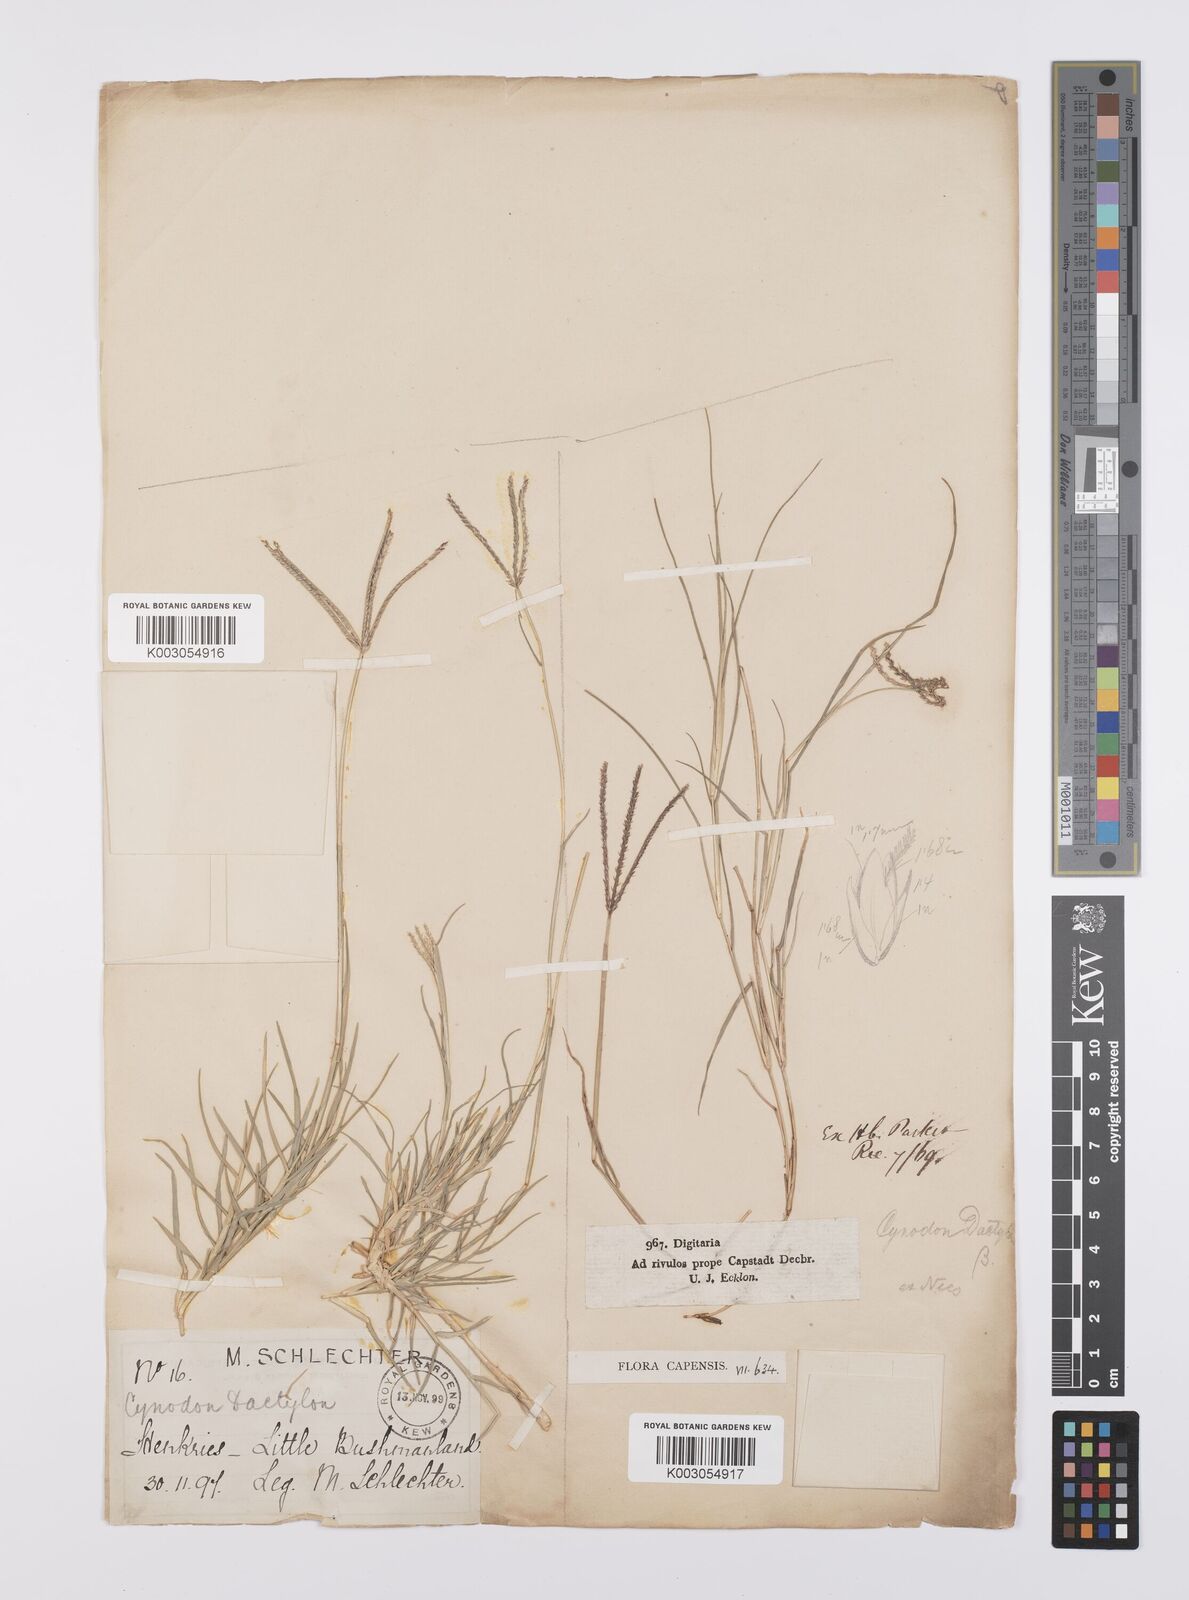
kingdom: Plantae
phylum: Tracheophyta
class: Liliopsida
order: Poales
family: Poaceae
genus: Cynodon
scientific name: Cynodon dactylon
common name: Bermuda grass
